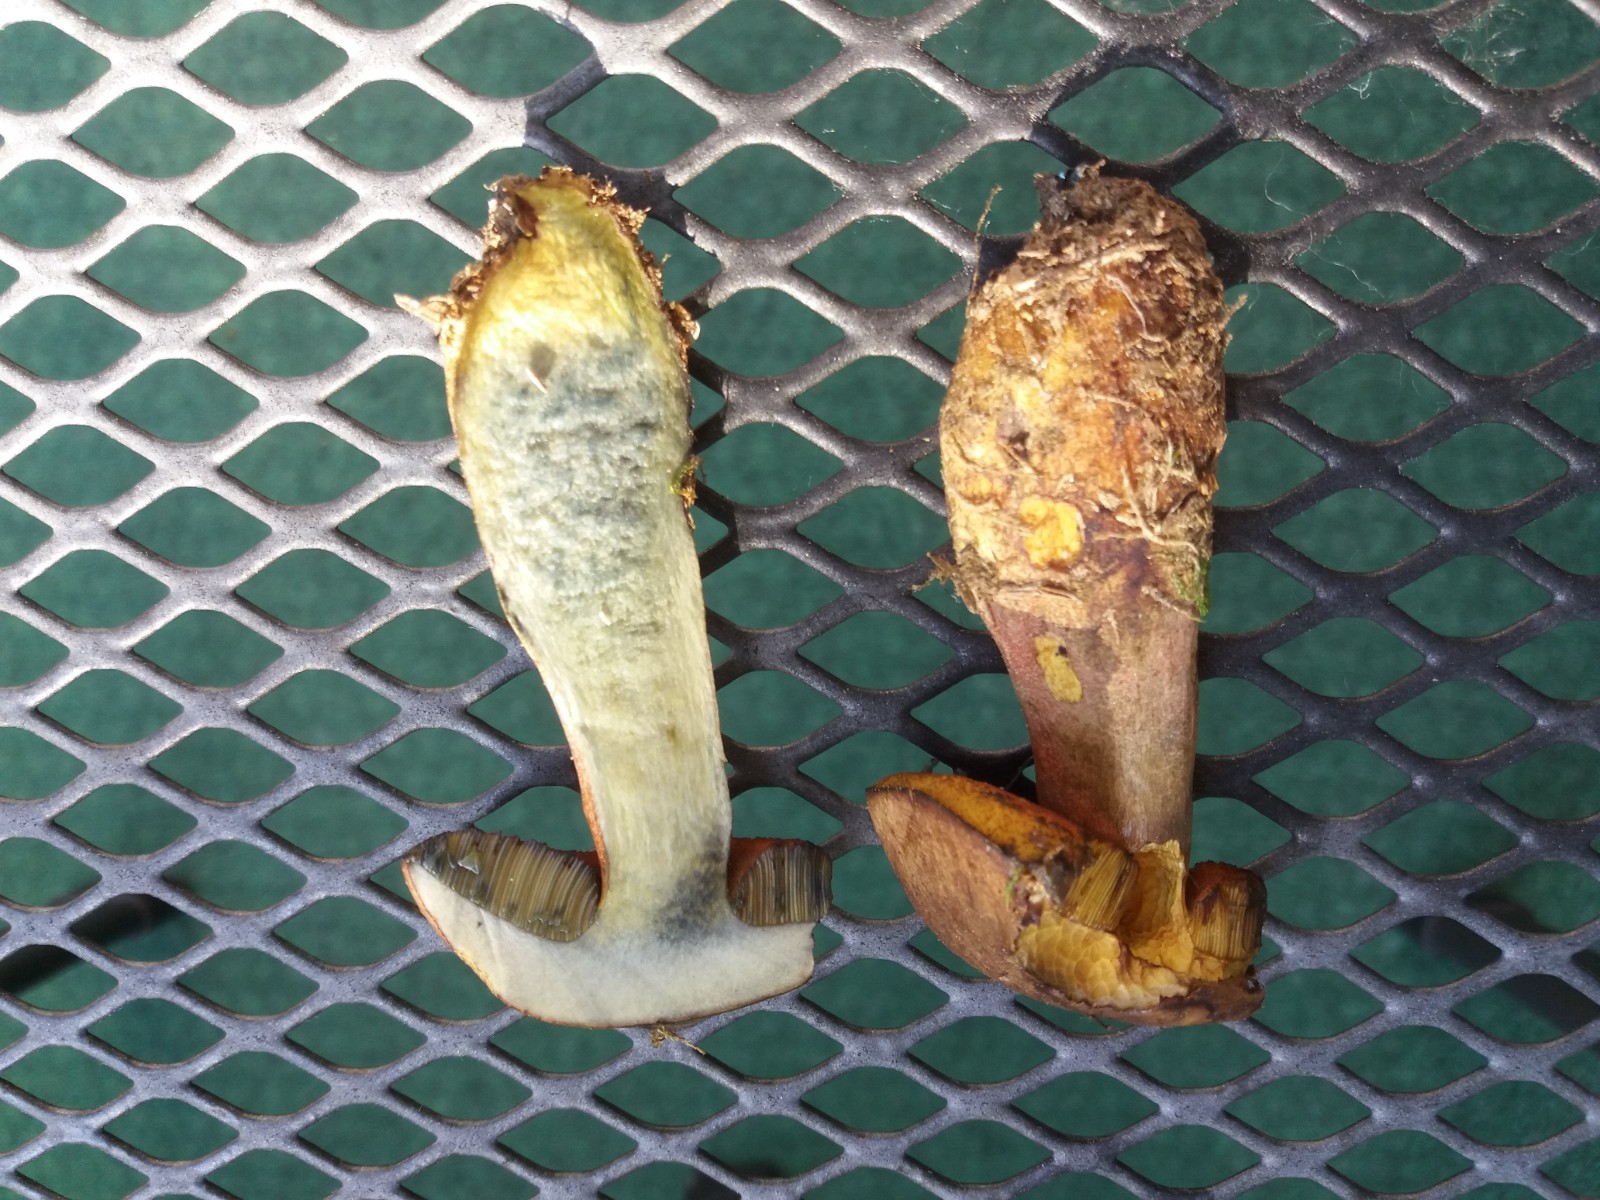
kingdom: Fungi
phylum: Basidiomycota
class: Agaricomycetes
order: Boletales
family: Boletaceae
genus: Neoboletus
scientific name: Neoboletus erythropus
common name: punktstokket indigorørhat
